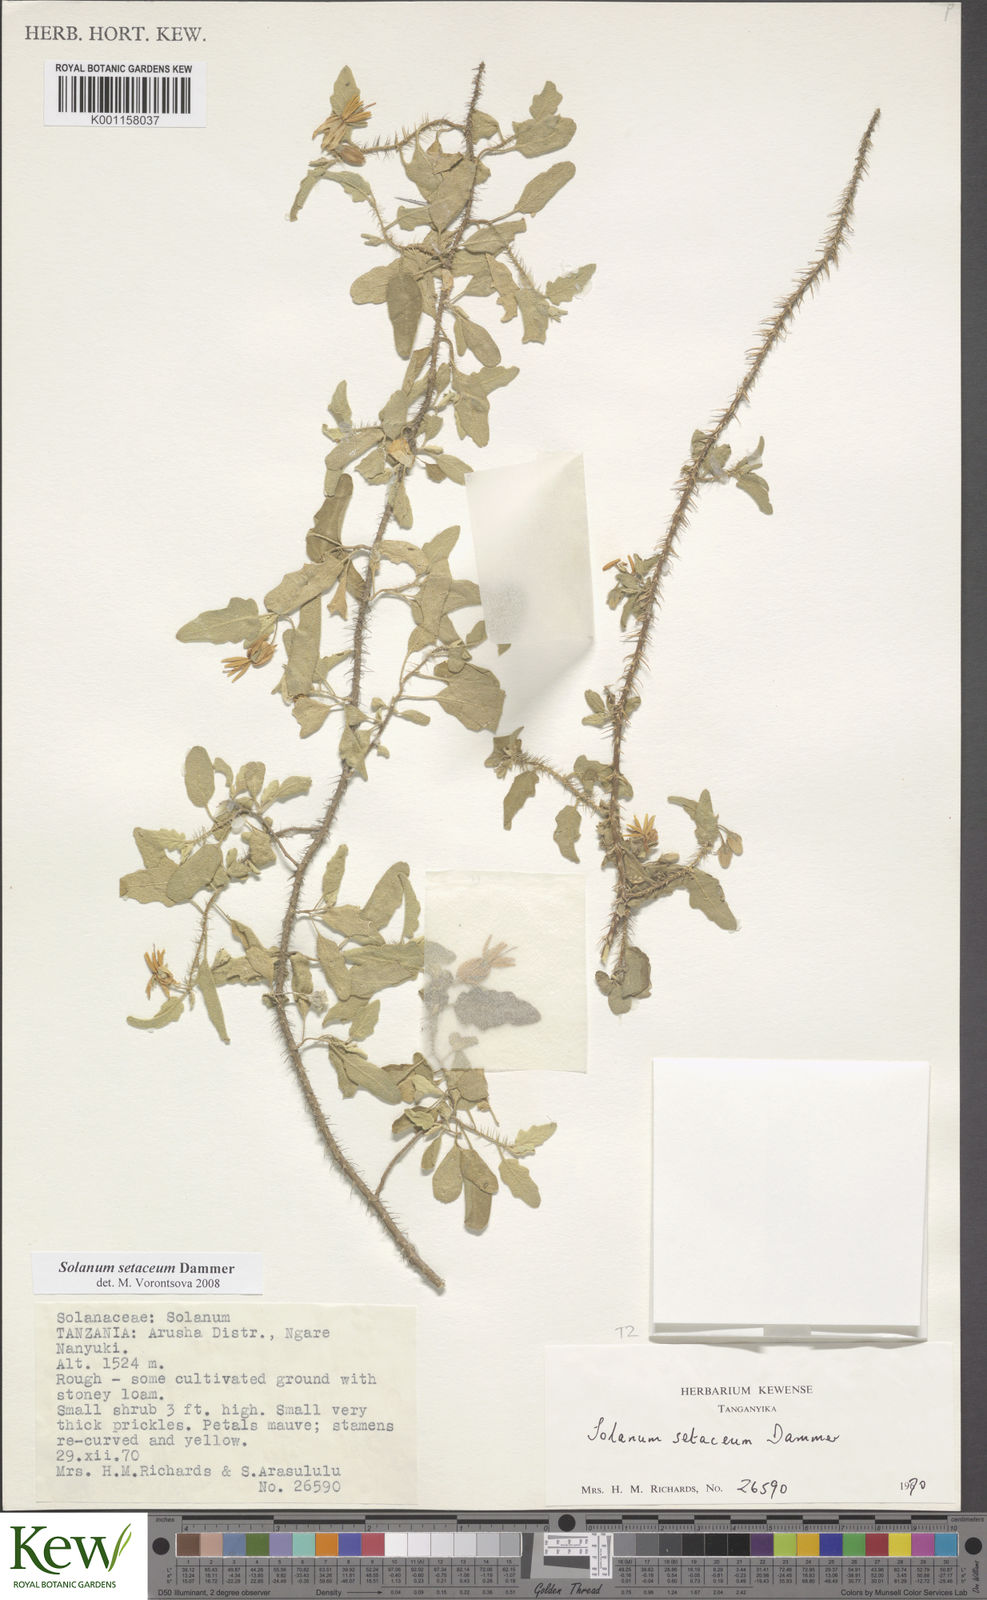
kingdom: Plantae
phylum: Tracheophyta
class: Magnoliopsida
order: Solanales
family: Solanaceae
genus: Solanum
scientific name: Solanum setaceum
